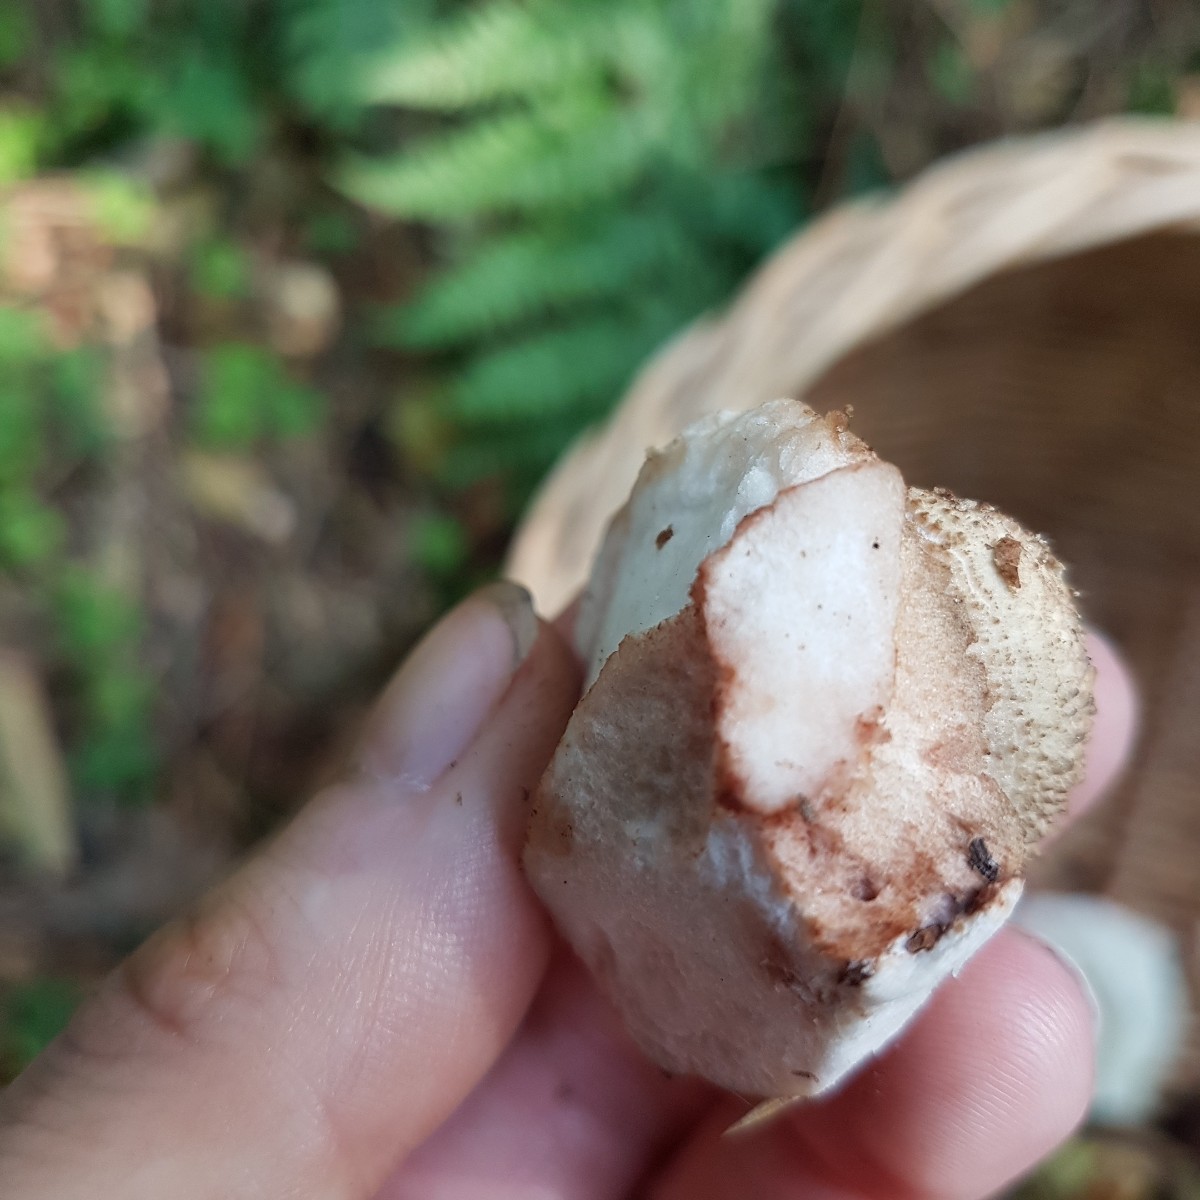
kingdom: Fungi
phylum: Basidiomycota
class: Agaricomycetes
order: Agaricales
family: Amanitaceae
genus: Amanita
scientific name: Amanita rubescens
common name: rødmende fluesvamp
